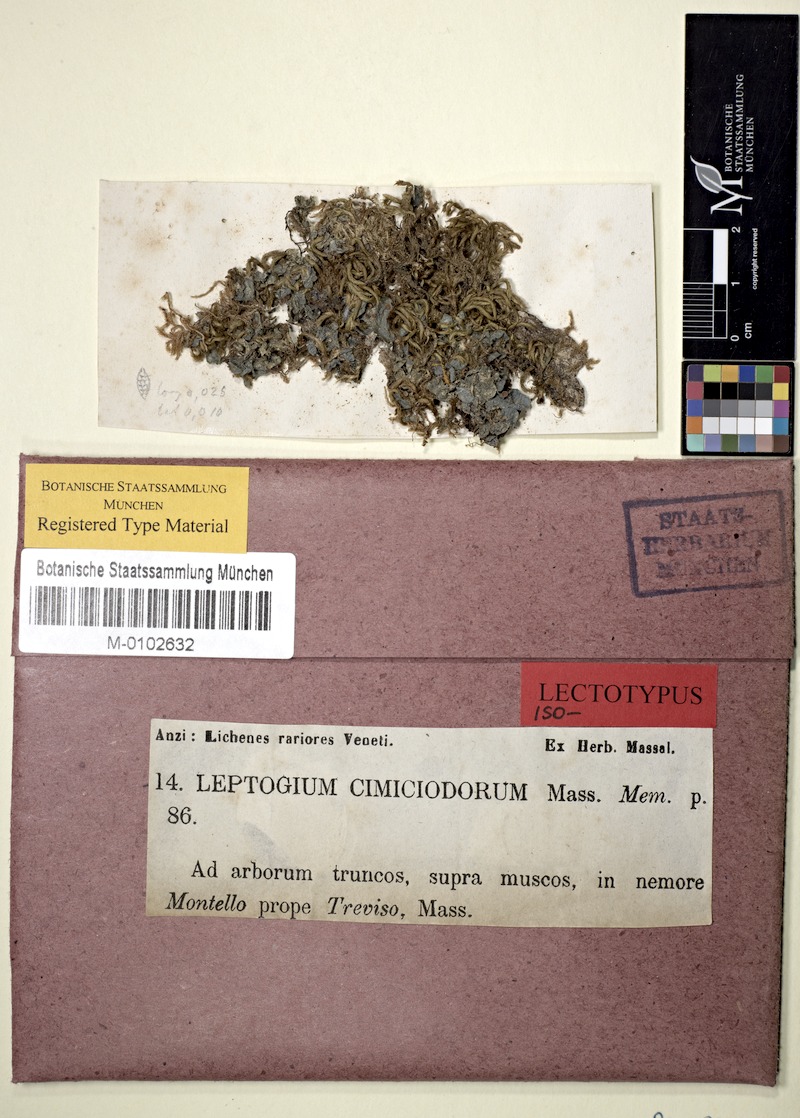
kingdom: Fungi
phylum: Ascomycota
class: Lecanoromycetes
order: Peltigerales
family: Collemataceae
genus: Leptogium
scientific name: Leptogium corticola
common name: Blistered jellyskin lichen
